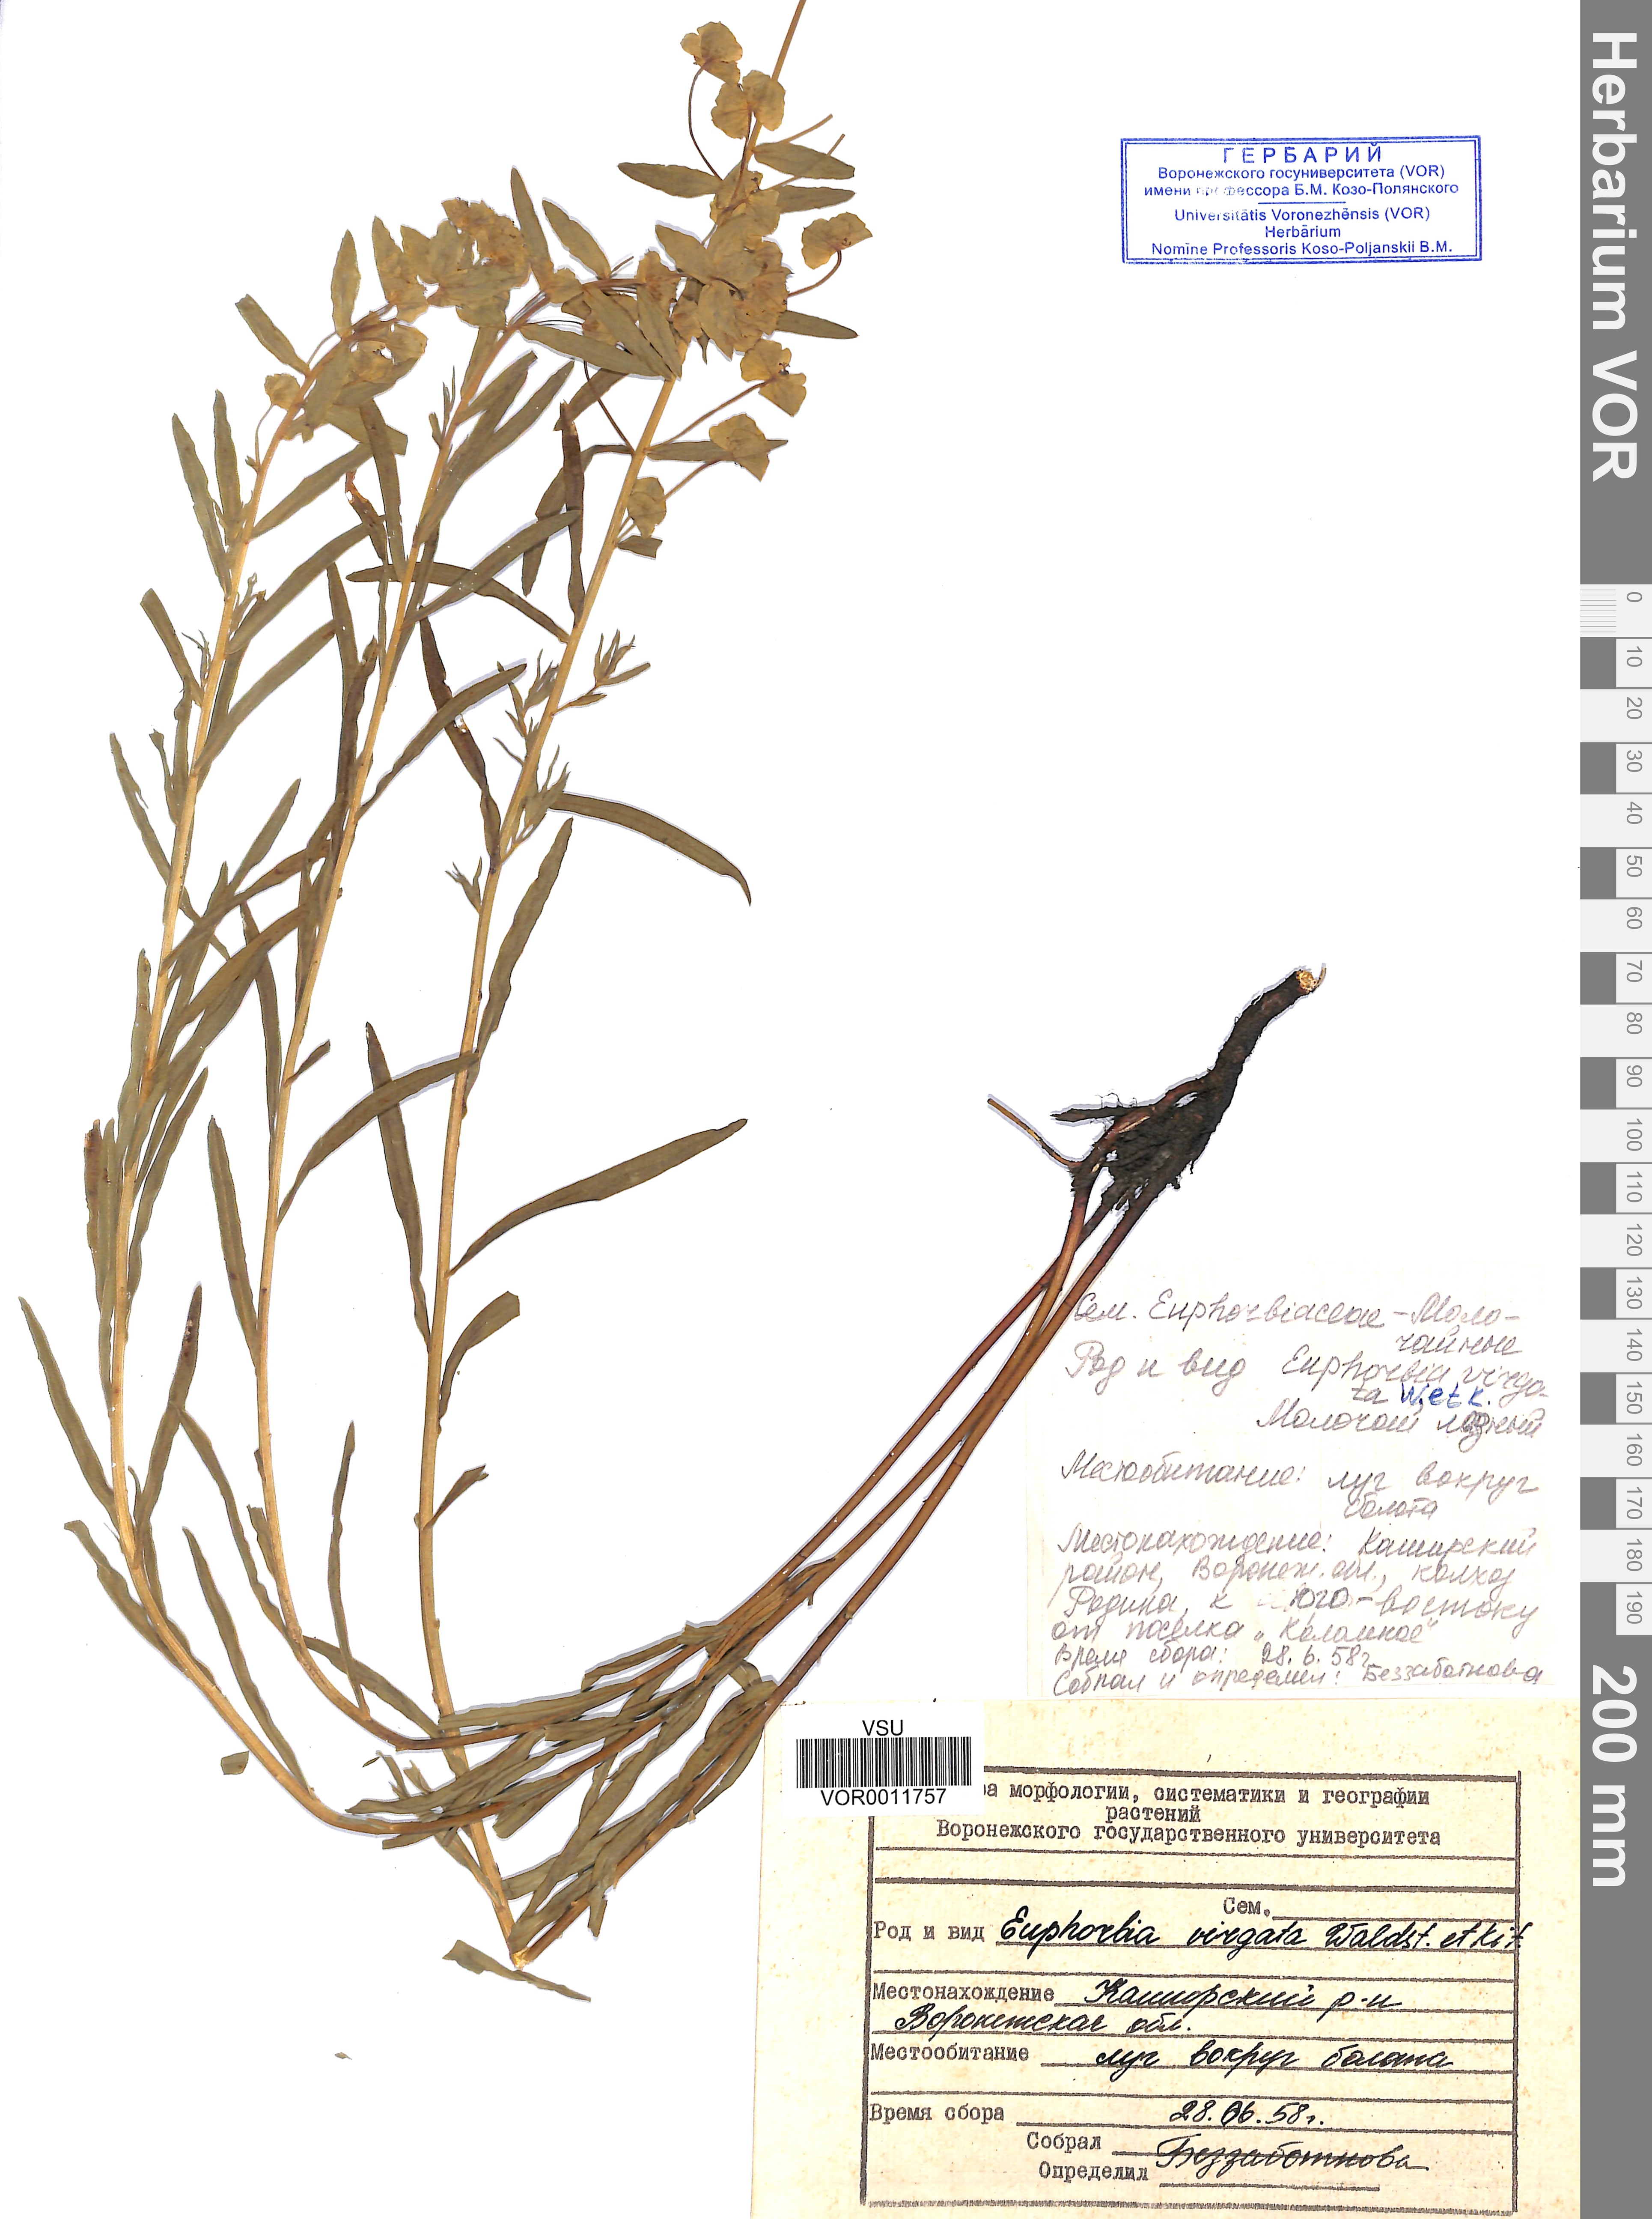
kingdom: Plantae
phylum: Tracheophyta
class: Magnoliopsida
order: Malpighiales
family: Euphorbiaceae
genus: Euphorbia
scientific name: Euphorbia virgata
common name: Leafy spurge
